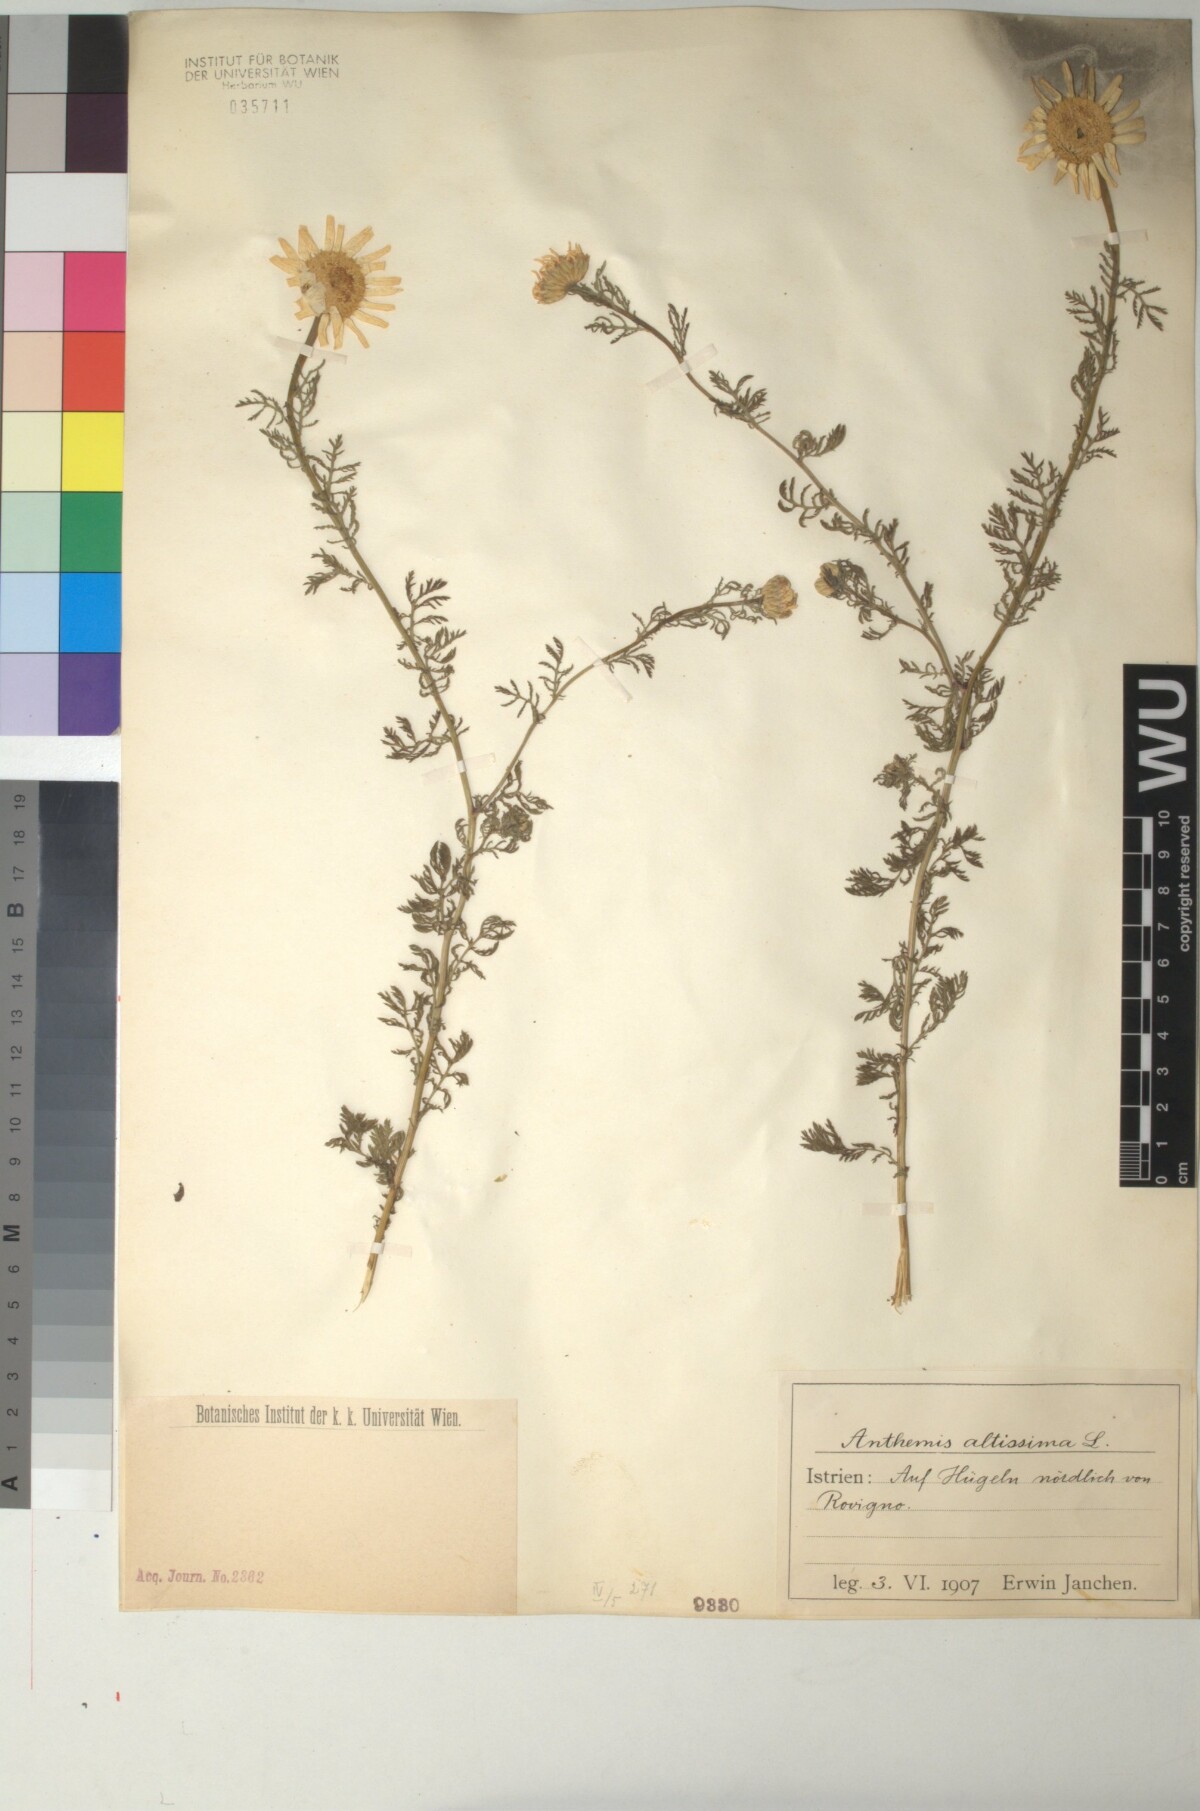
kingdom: Plantae
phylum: Tracheophyta
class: Magnoliopsida
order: Asterales
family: Asteraceae
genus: Cota
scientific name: Cota altissima
